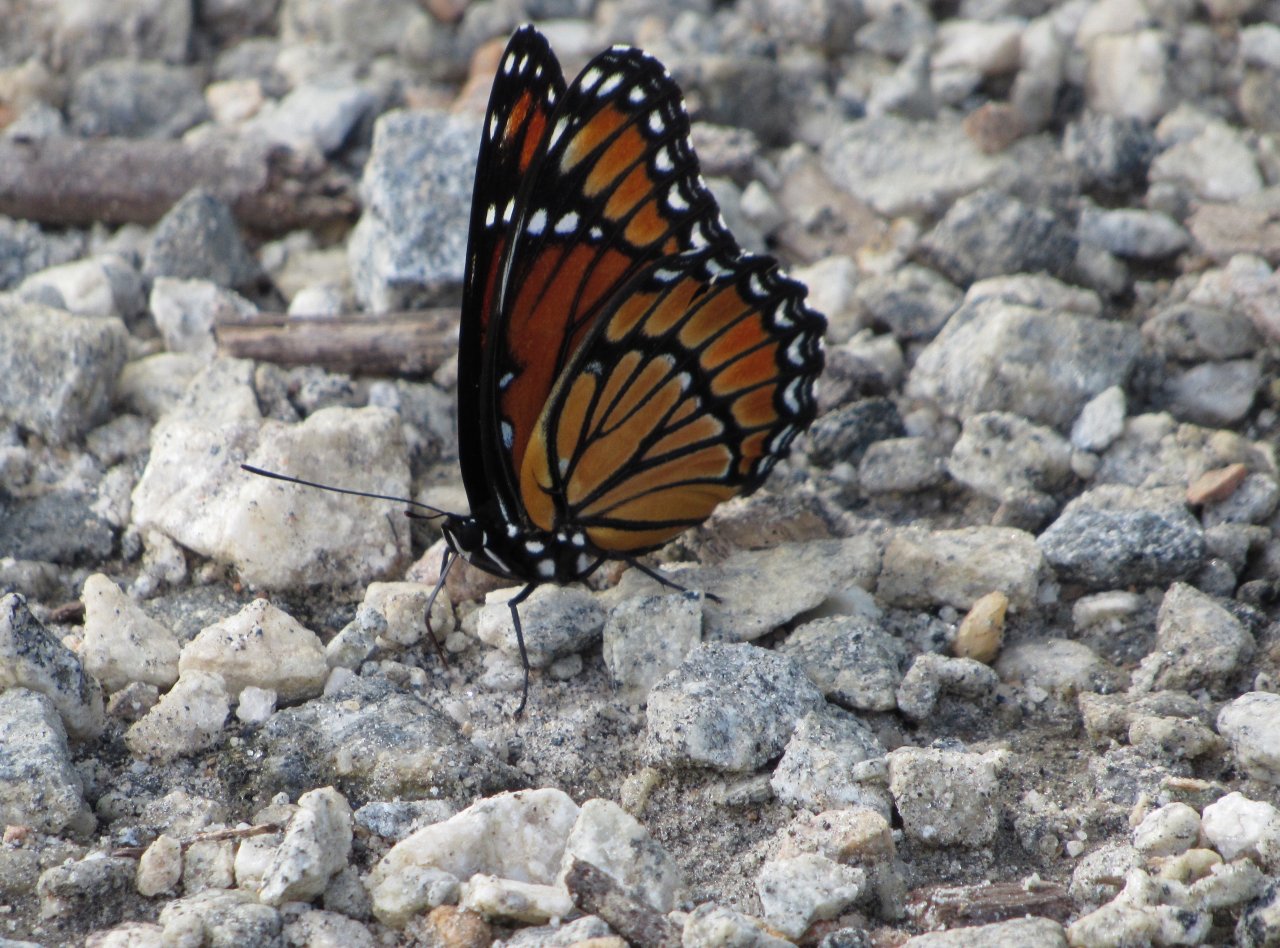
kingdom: Animalia
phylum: Arthropoda
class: Insecta
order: Lepidoptera
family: Nymphalidae
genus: Limenitis
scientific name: Limenitis archippus
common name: Viceroy
